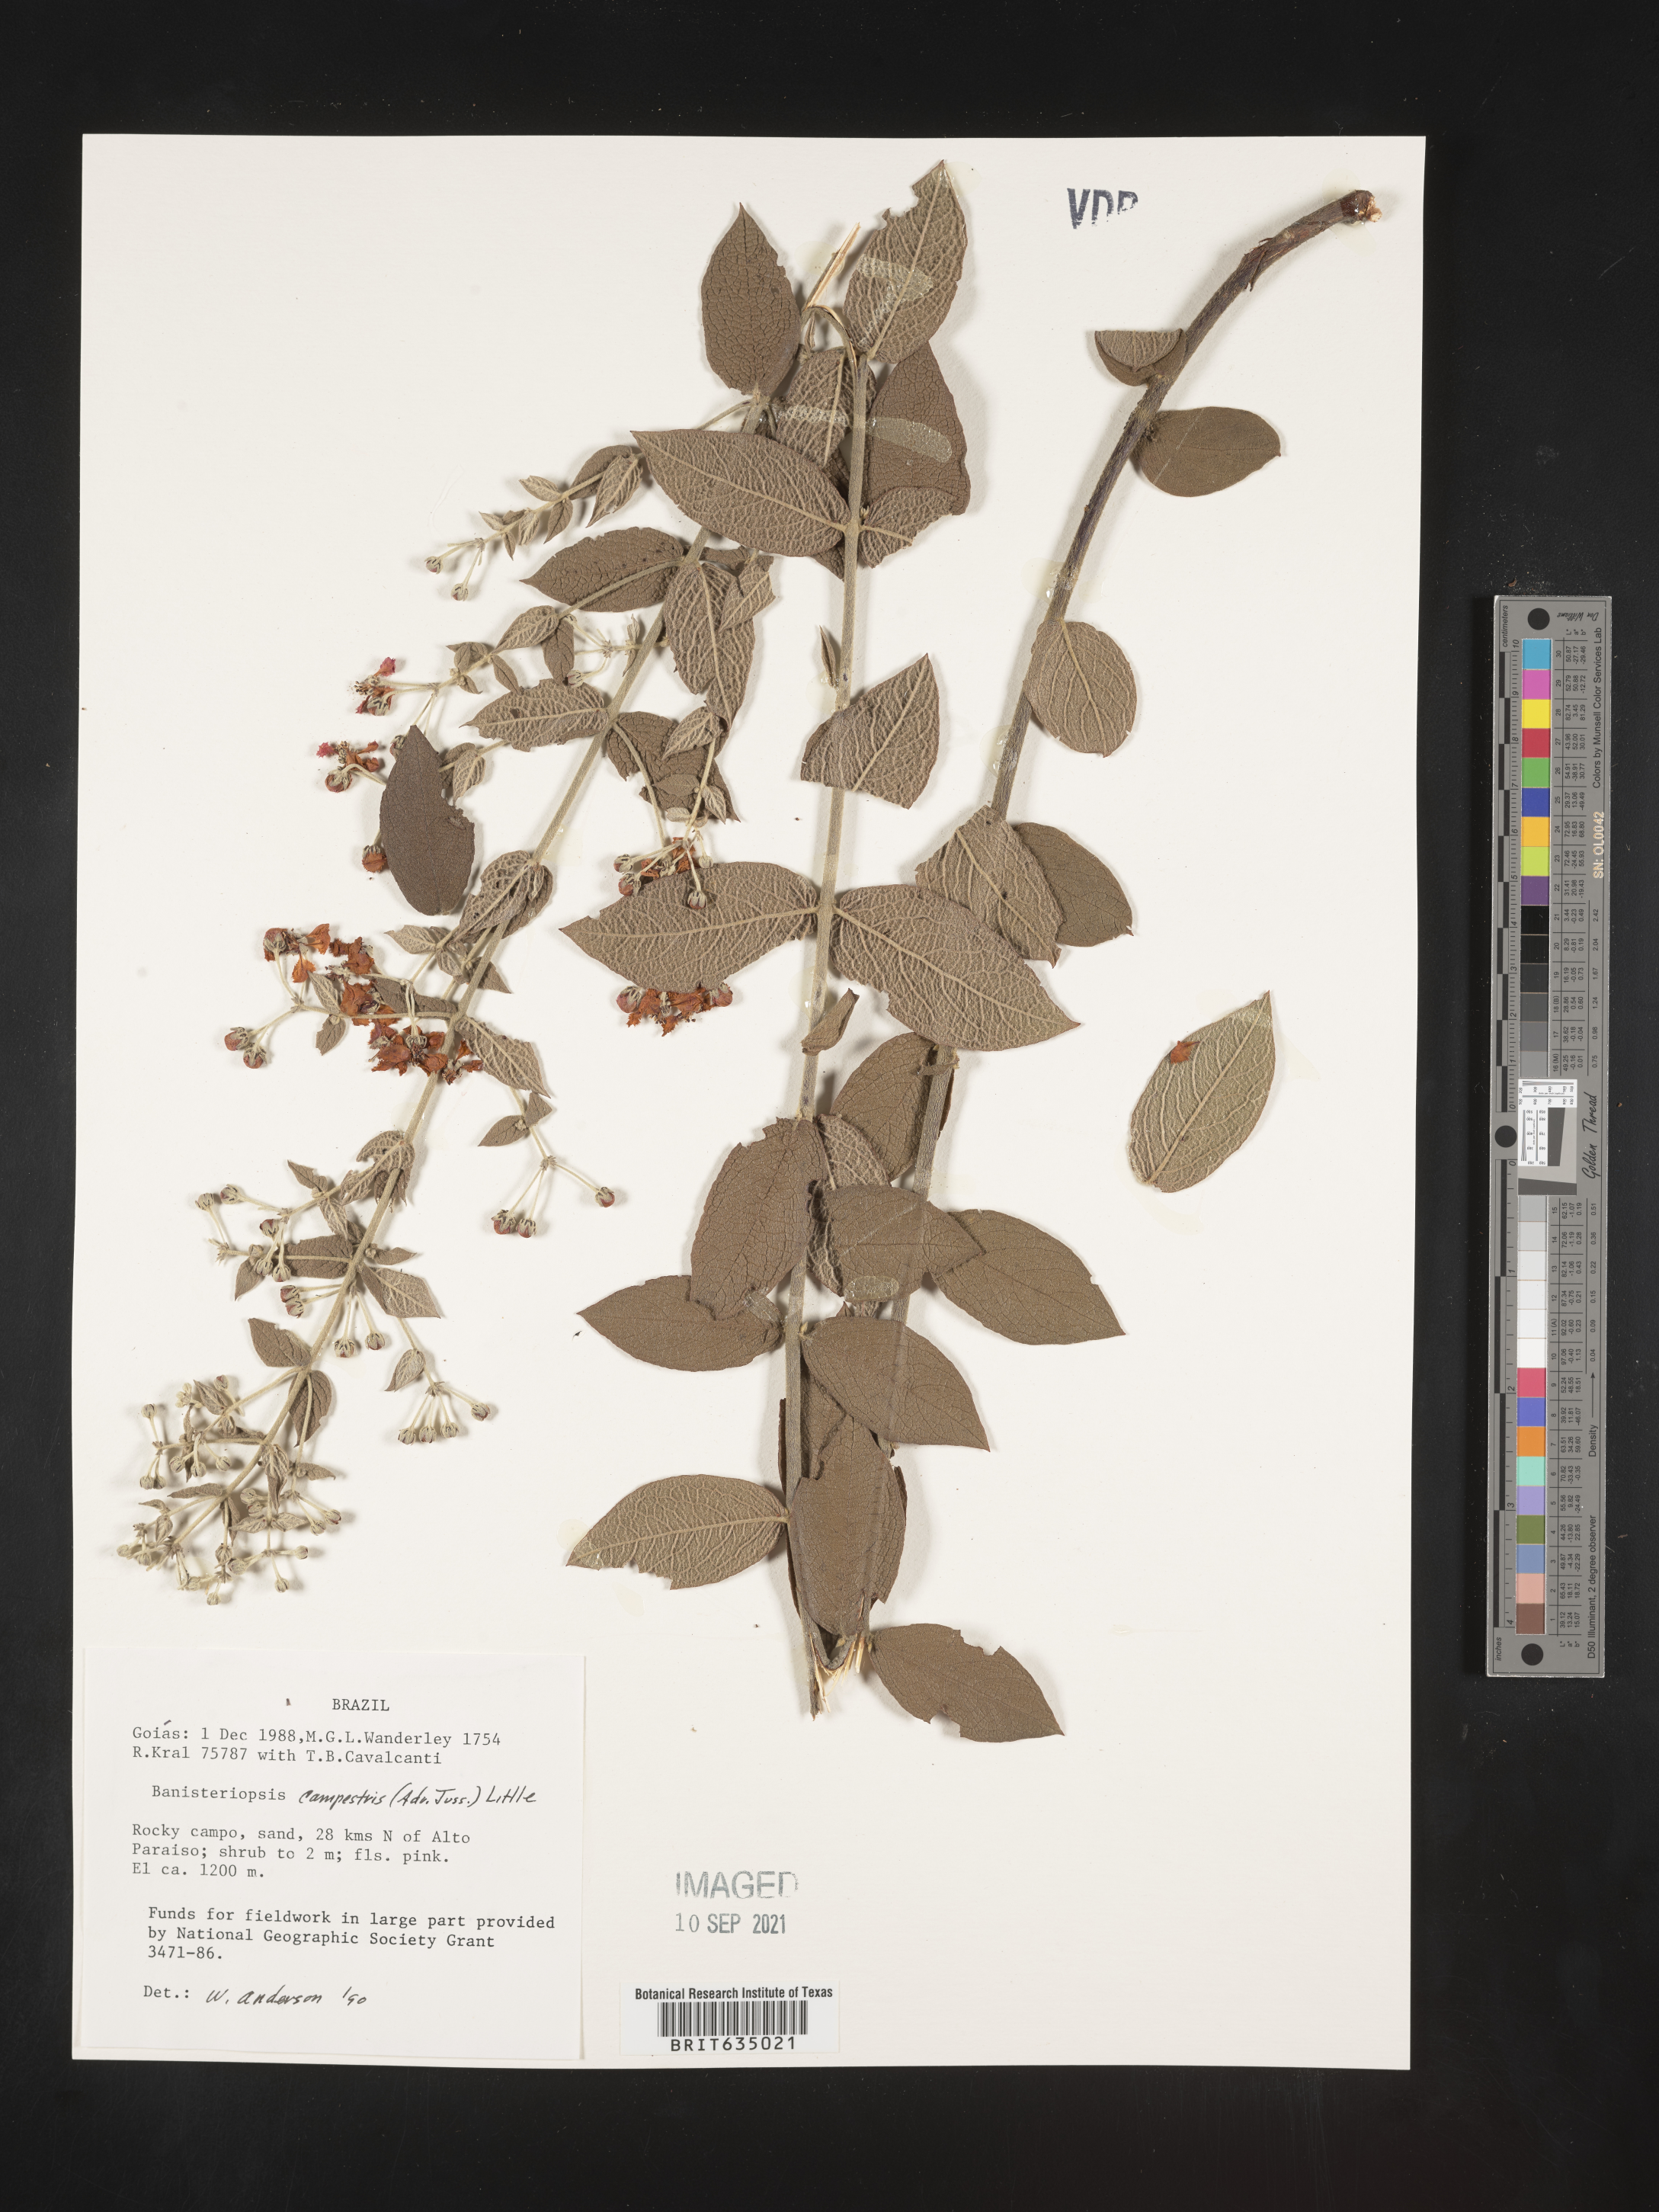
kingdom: Plantae
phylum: Tracheophyta
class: Magnoliopsida
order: Malpighiales
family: Malpighiaceae
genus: Banisteriopsis
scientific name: Banisteriopsis
